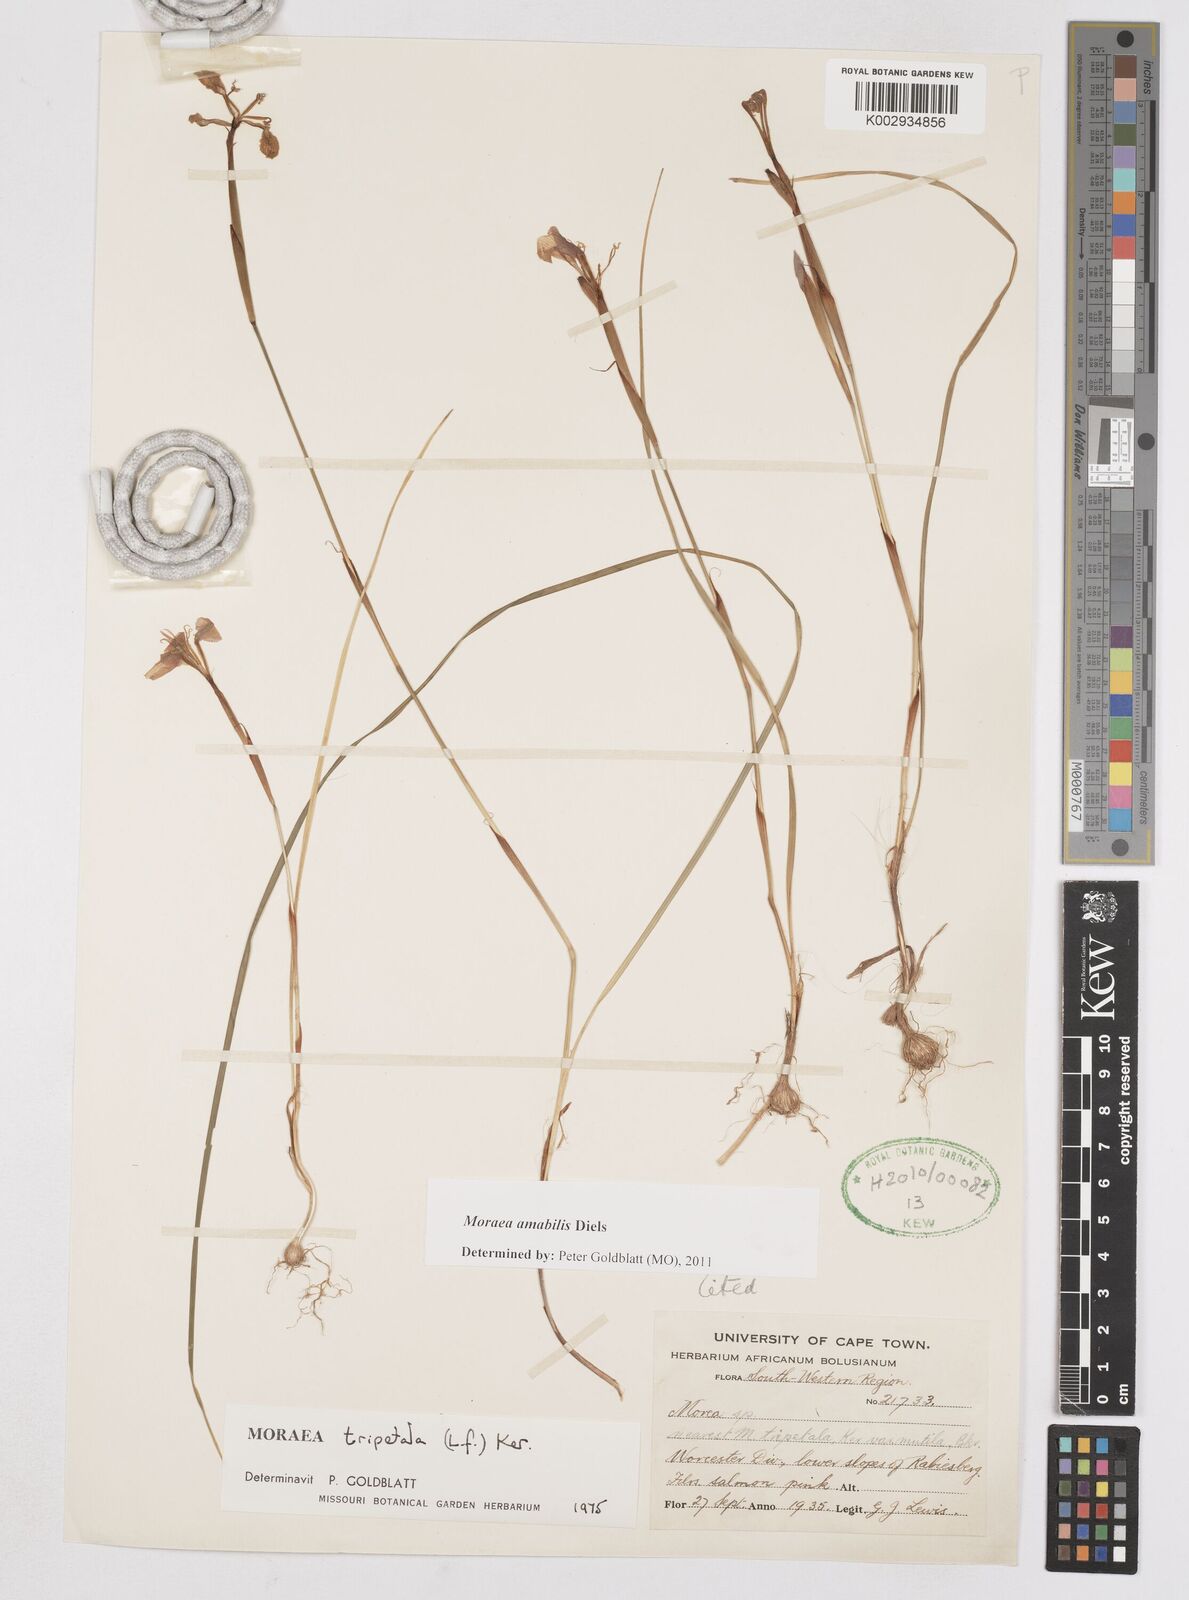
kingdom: Plantae
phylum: Tracheophyta
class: Liliopsida
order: Asparagales
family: Iridaceae
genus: Moraea
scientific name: Moraea amabilis
